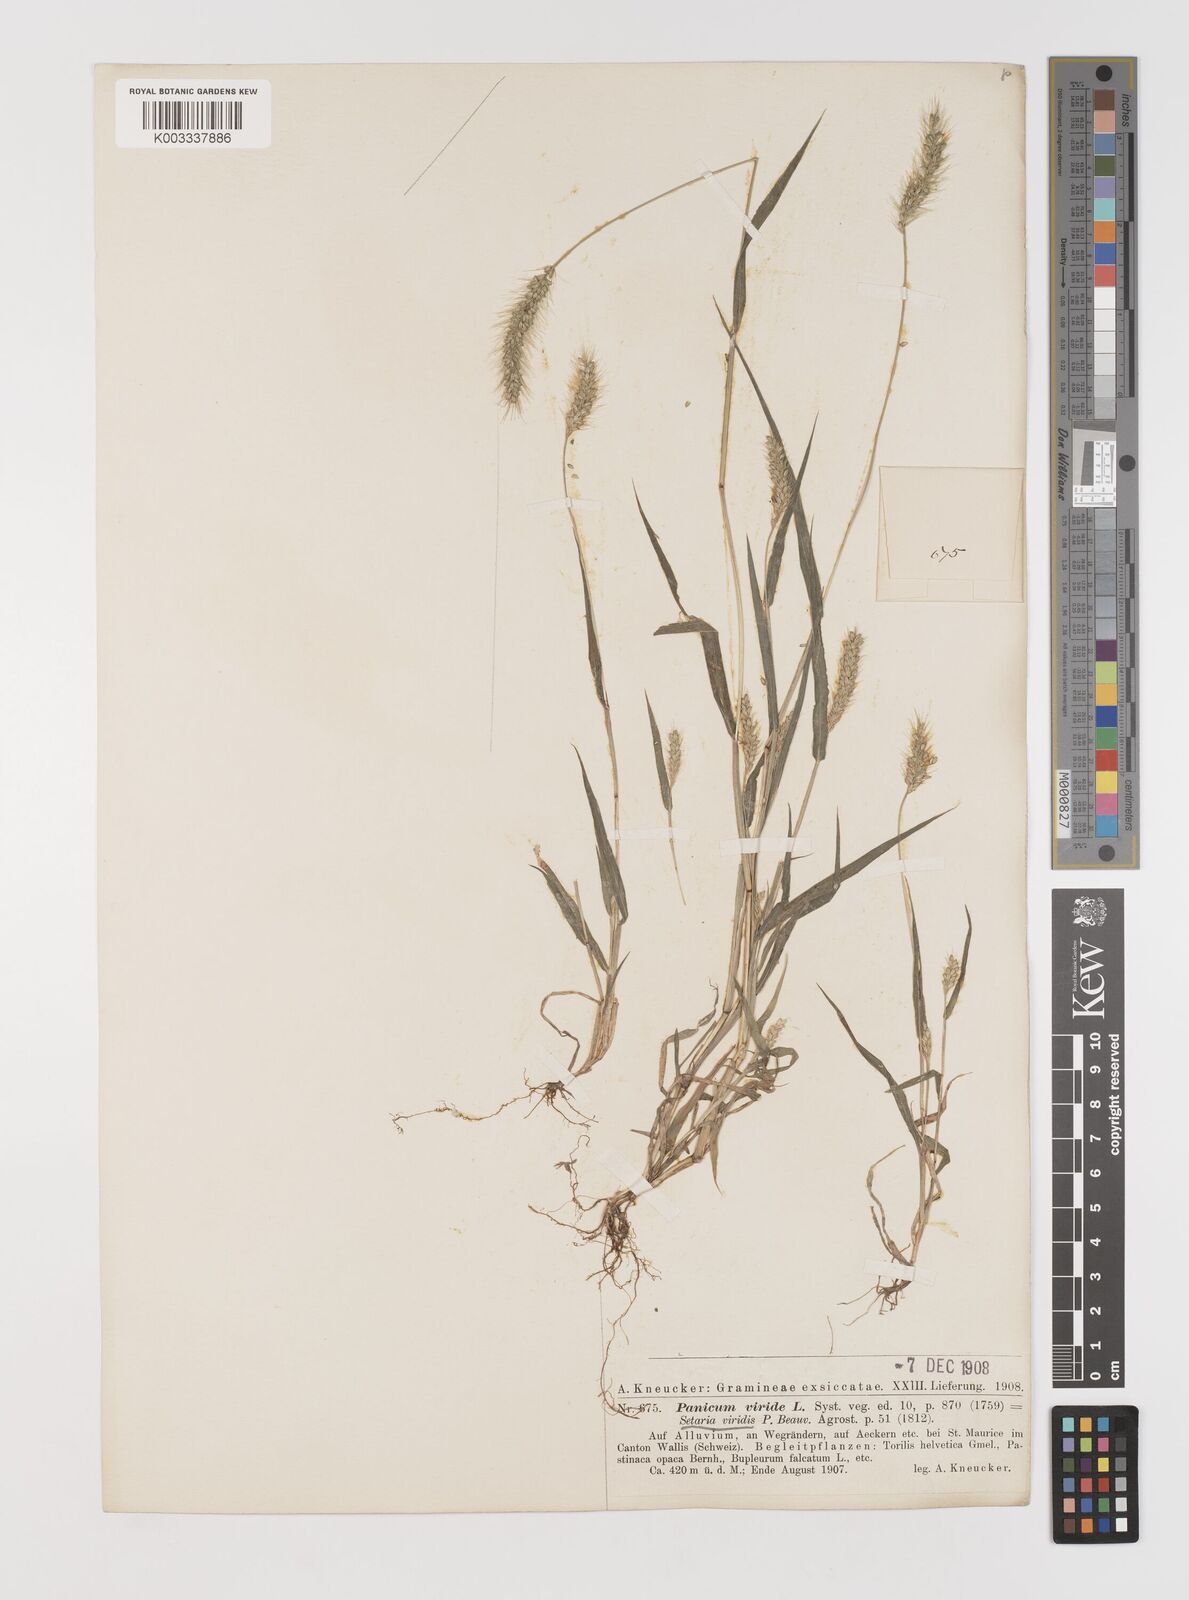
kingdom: Plantae
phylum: Tracheophyta
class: Liliopsida
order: Poales
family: Poaceae
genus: Setaria
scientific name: Setaria viridis
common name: Green bristlegrass
